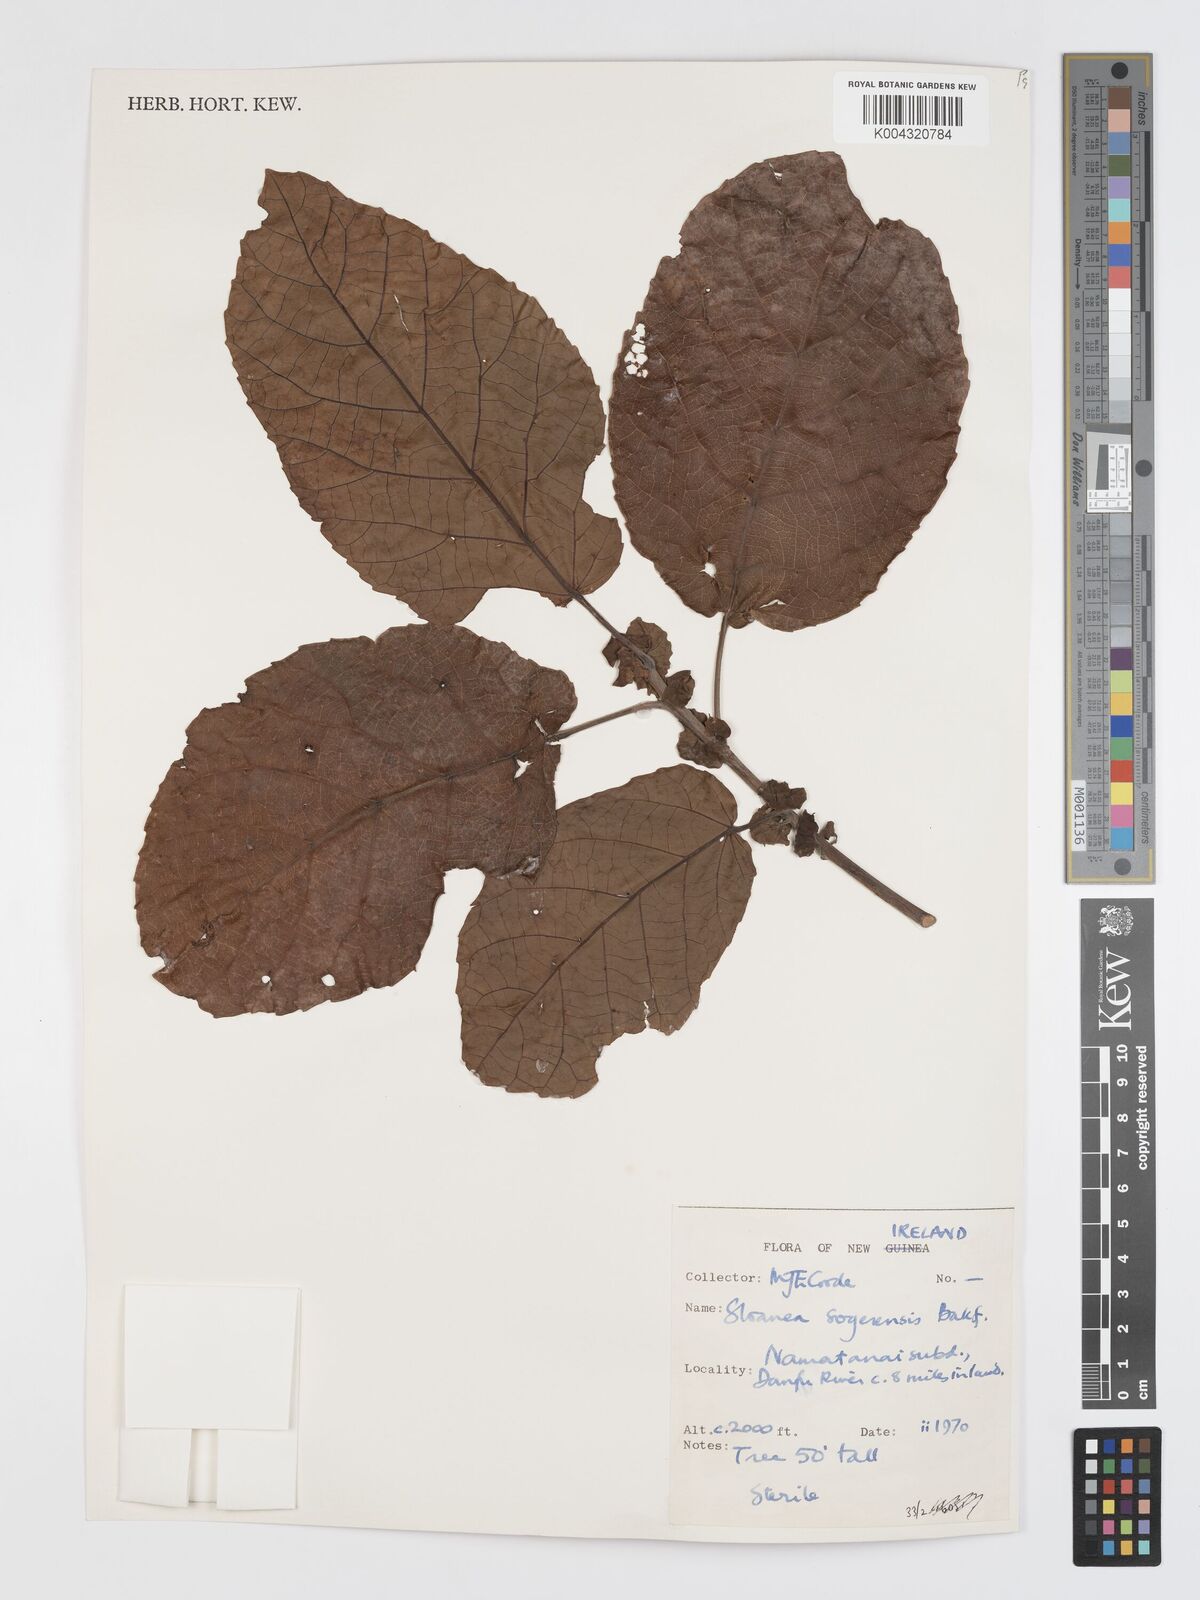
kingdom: Plantae
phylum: Tracheophyta
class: Magnoliopsida
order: Oxalidales
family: Elaeocarpaceae
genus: Sloanea
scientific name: Sloanea sogerensis
